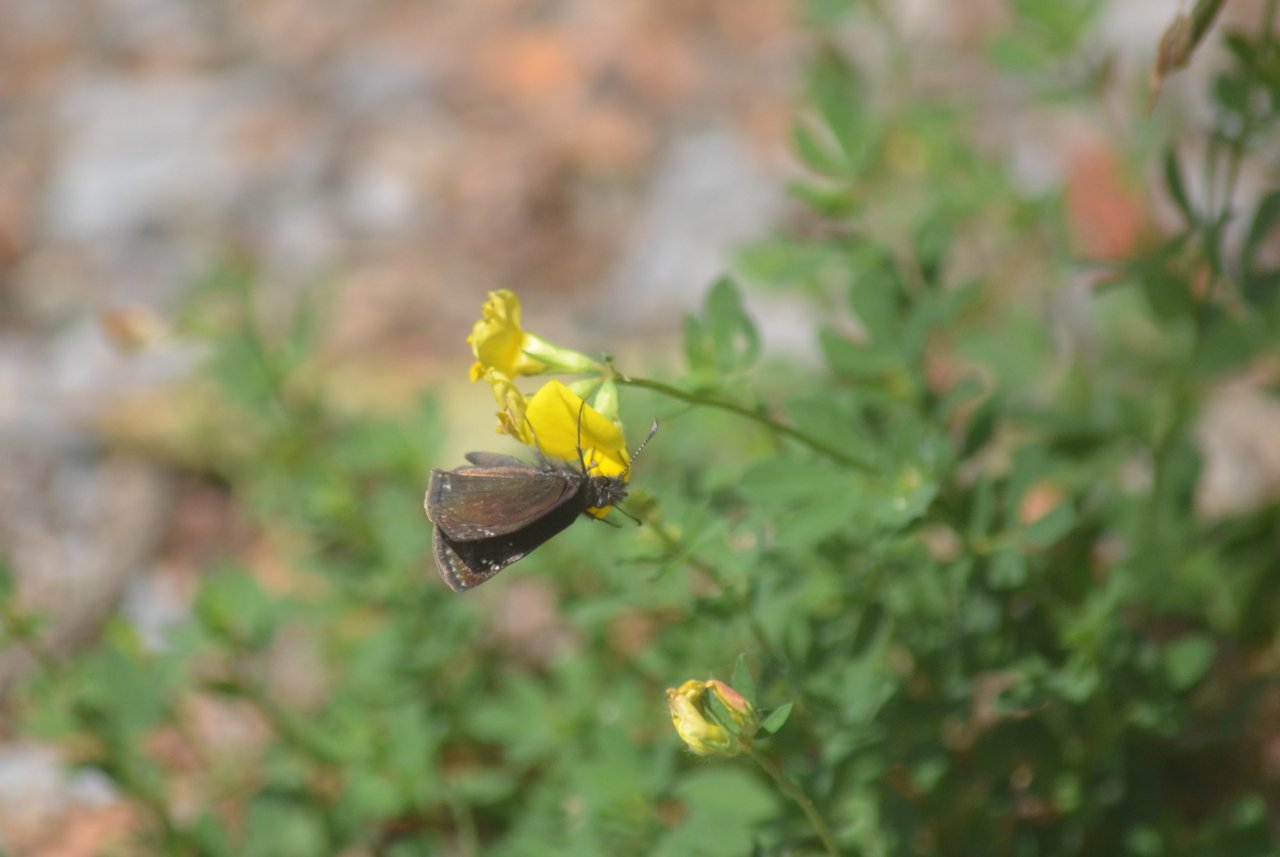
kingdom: Animalia
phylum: Arthropoda
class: Insecta
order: Lepidoptera
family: Hesperiidae
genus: Gesta
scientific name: Gesta
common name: Columbine Duskywing
